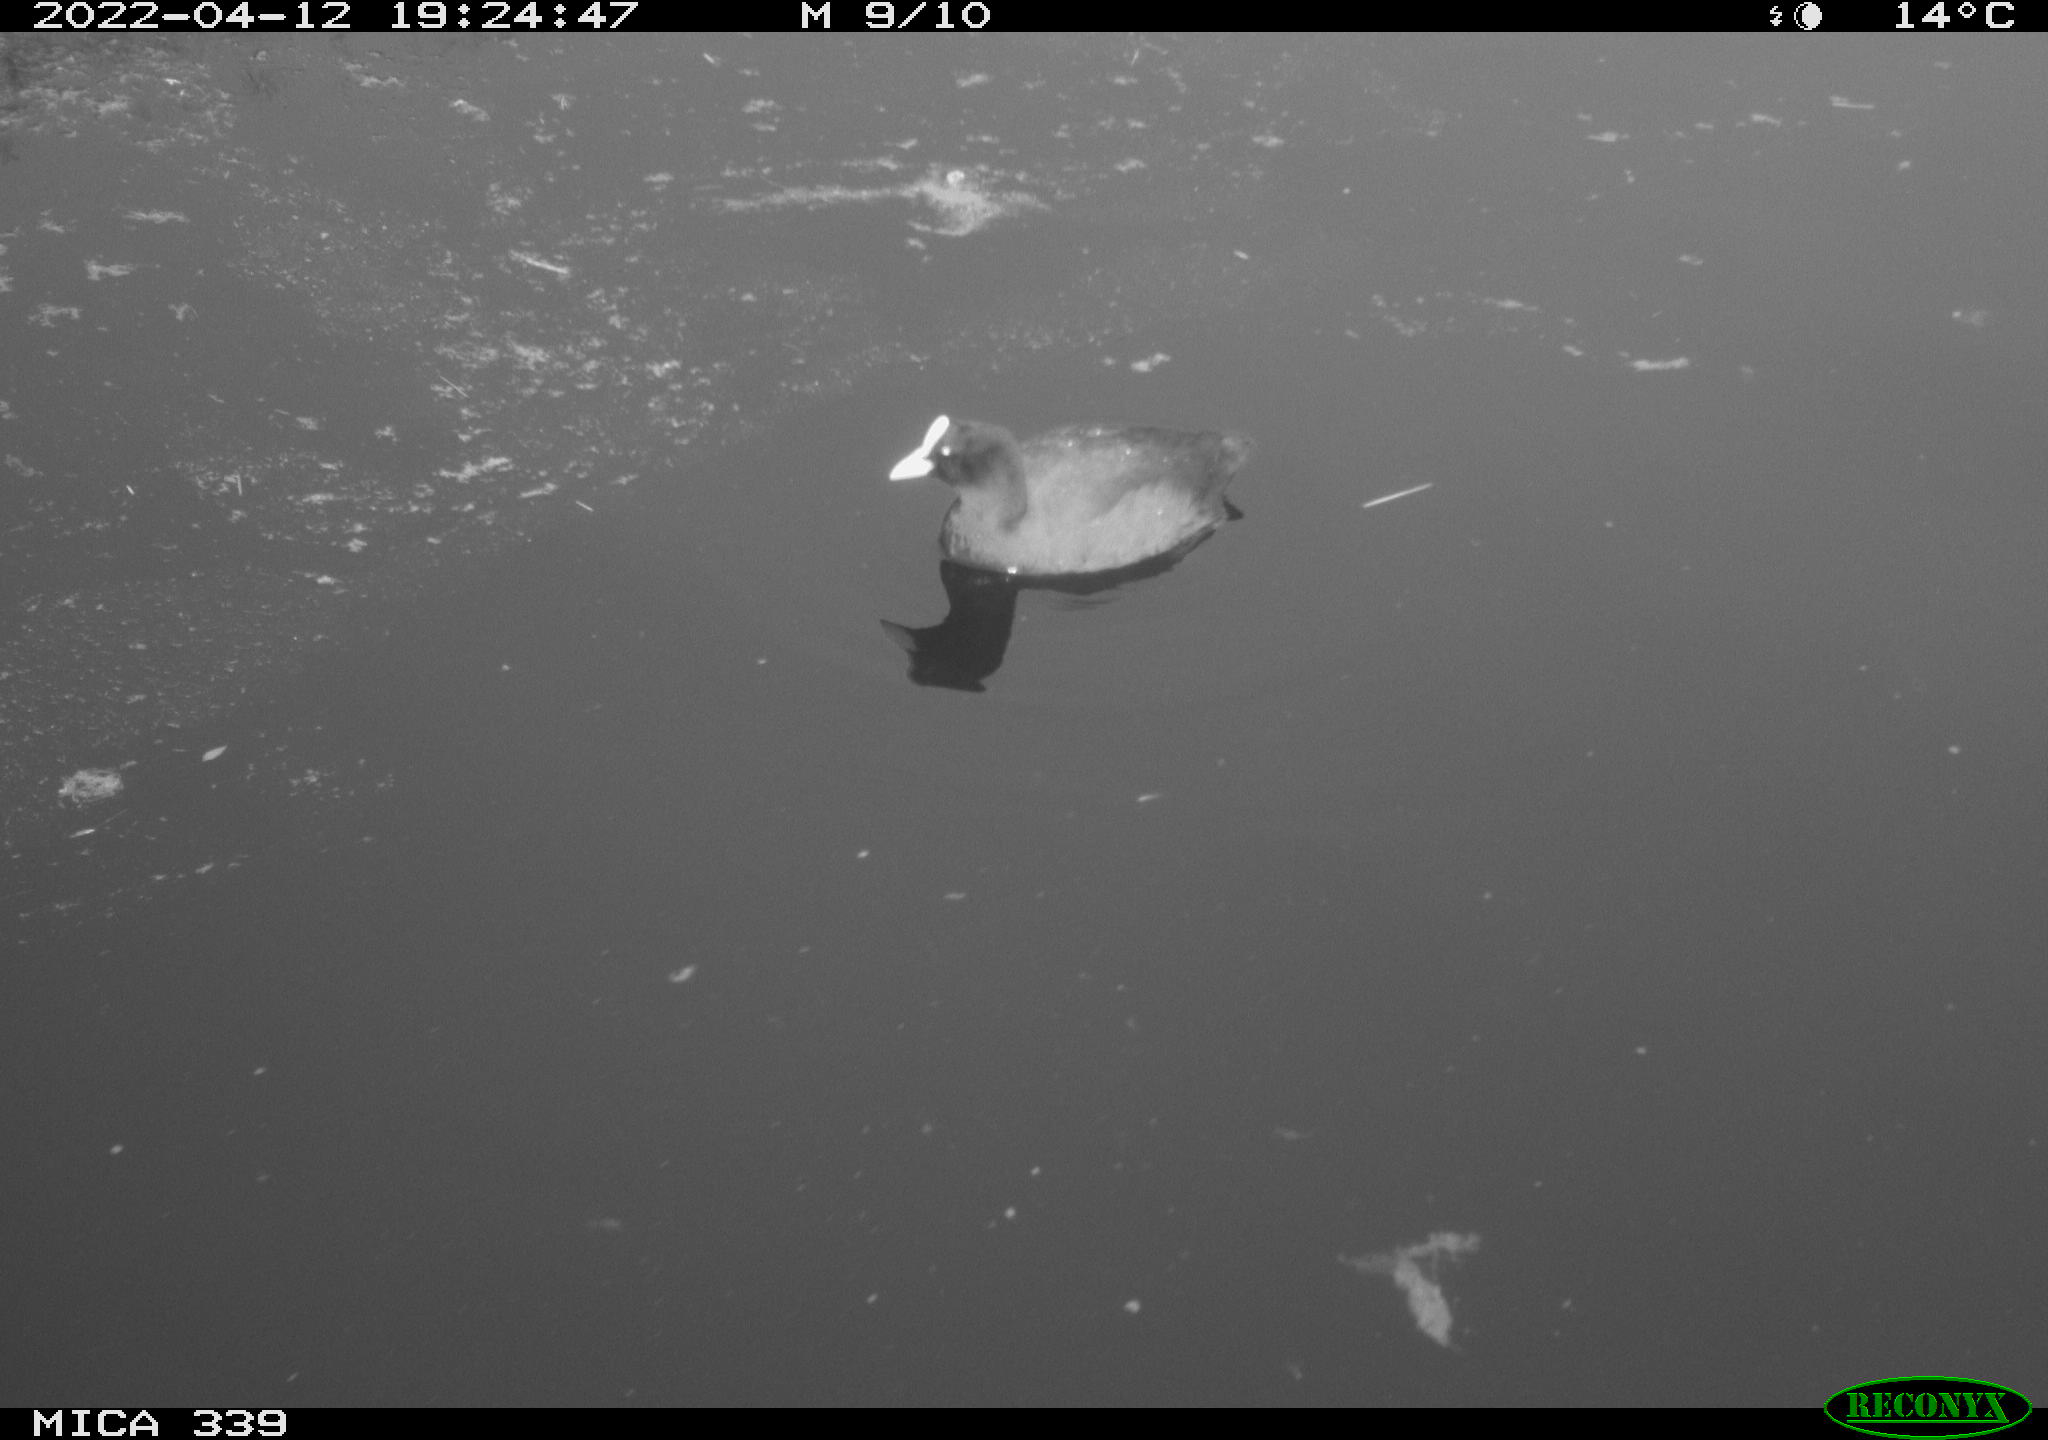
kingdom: Animalia
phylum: Chordata
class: Aves
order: Gruiformes
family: Rallidae
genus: Fulica
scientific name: Fulica atra
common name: Eurasian coot
